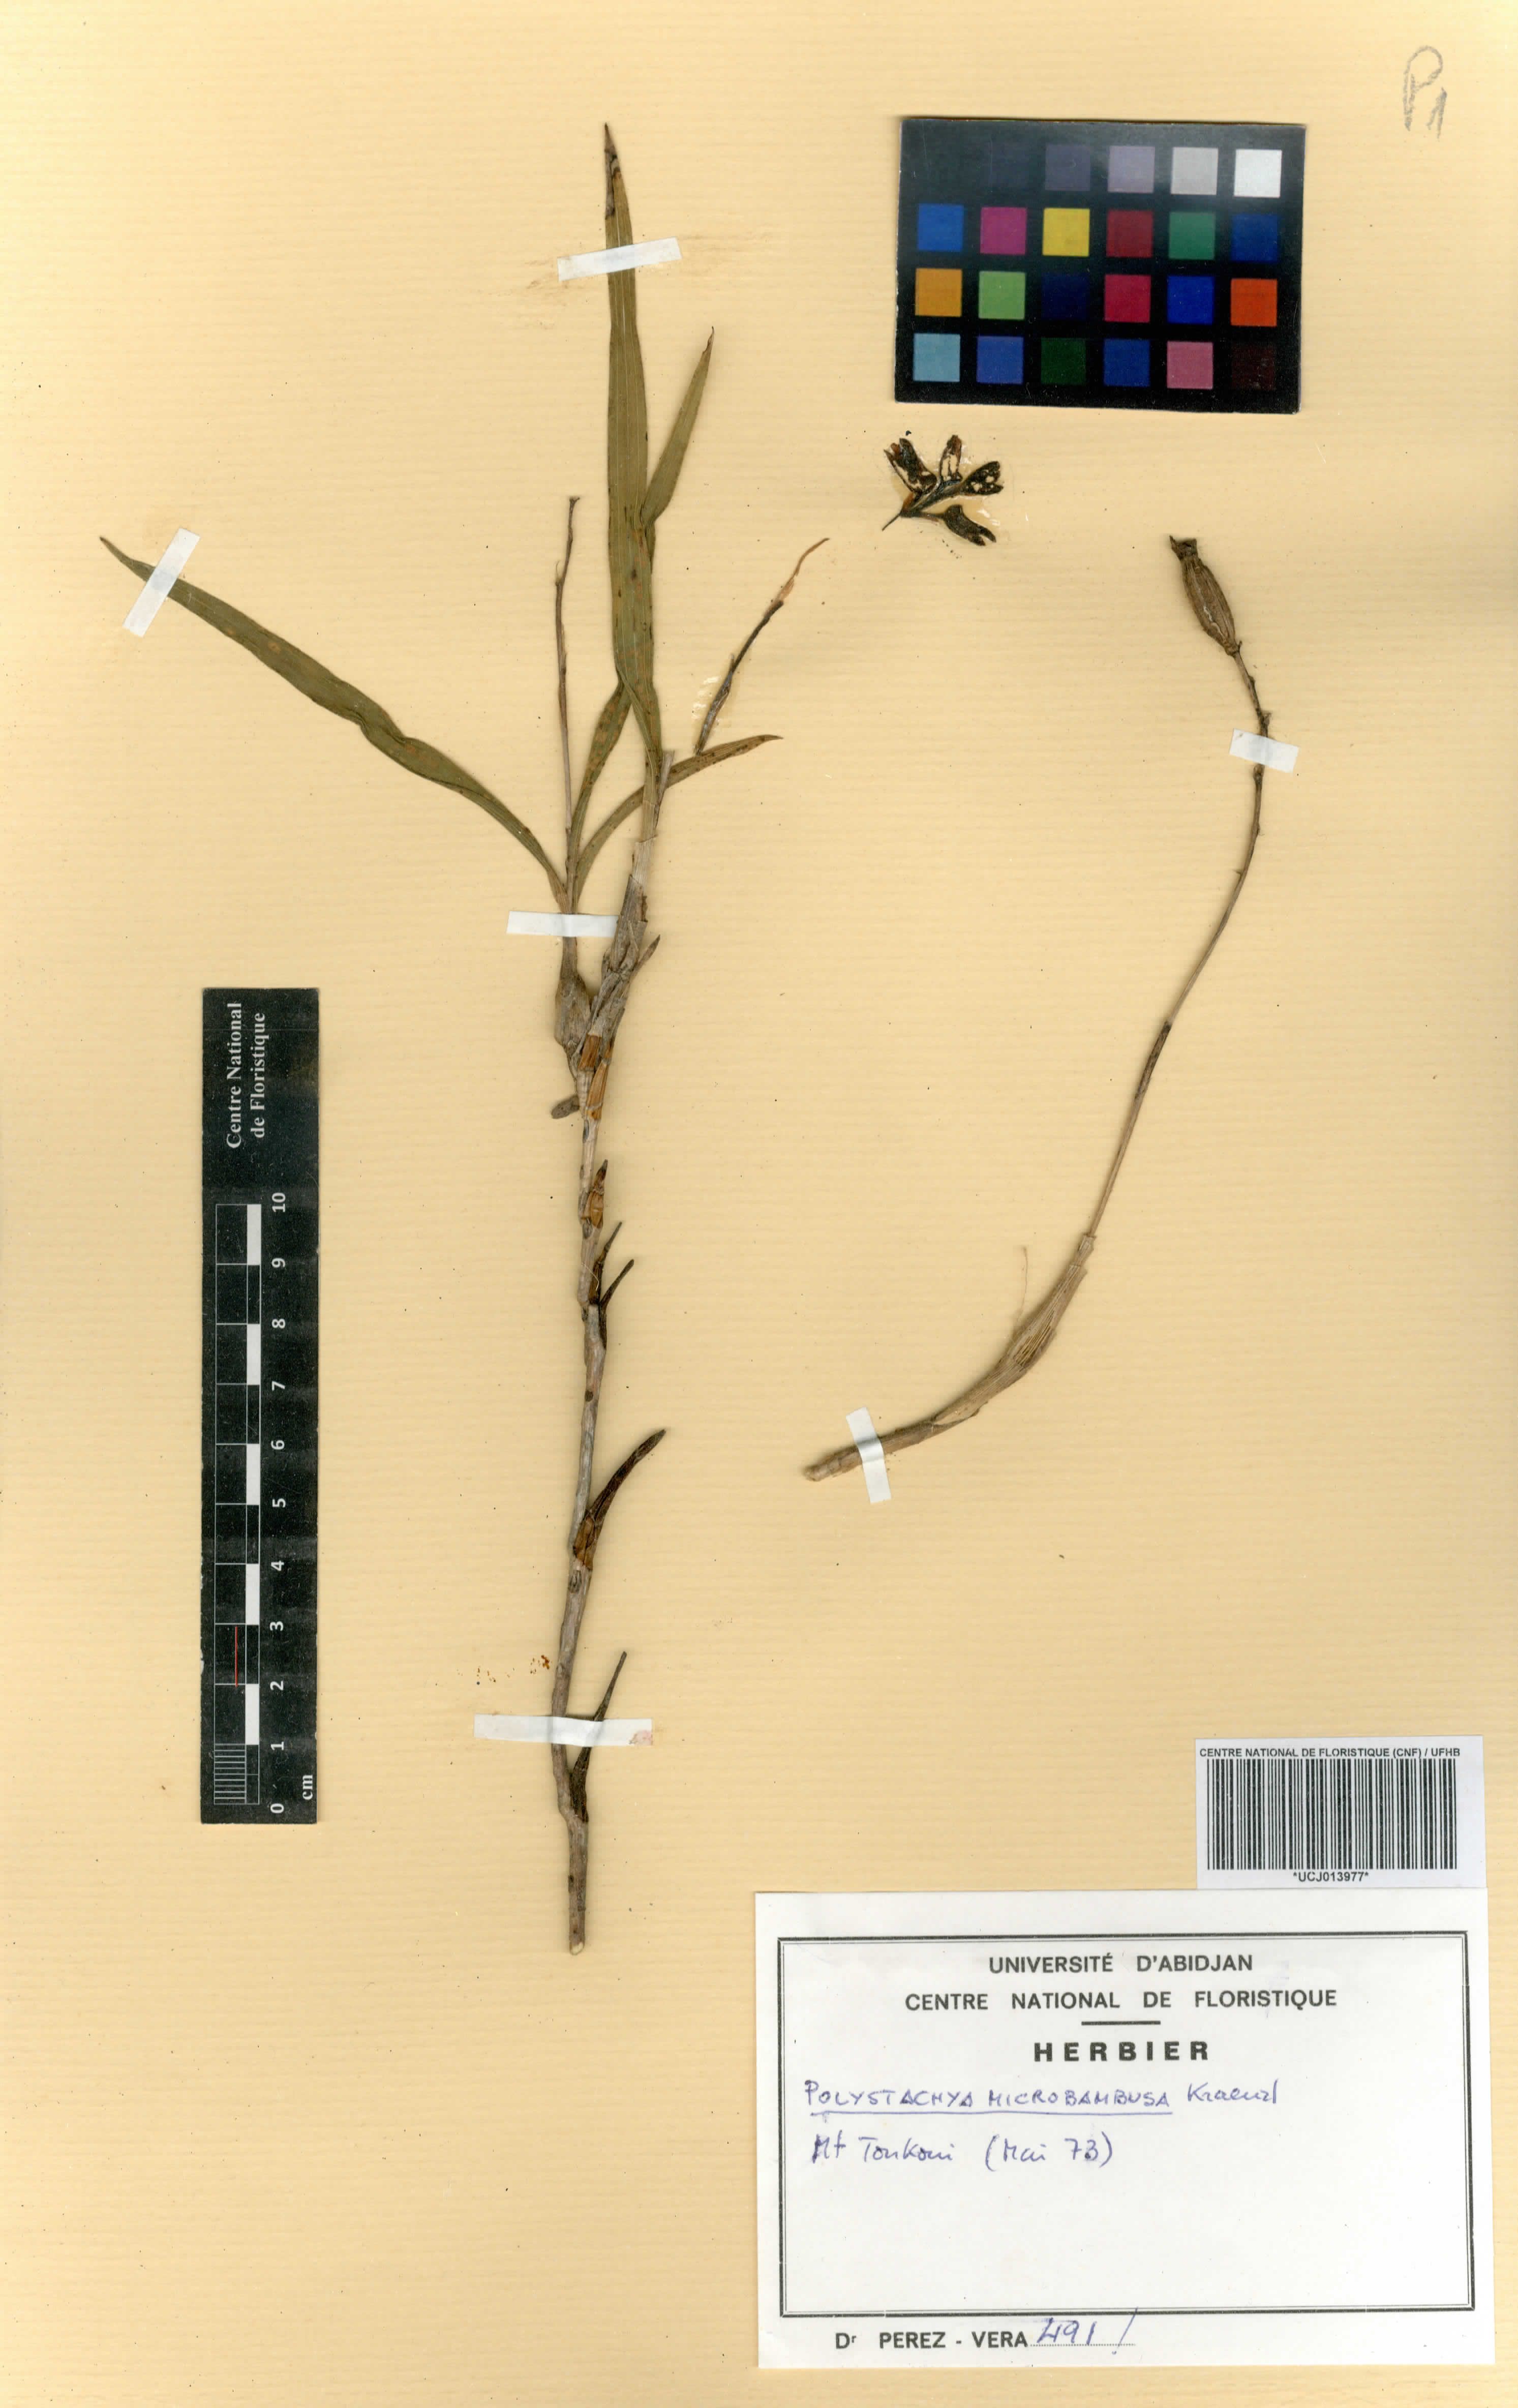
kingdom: Plantae
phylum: Tracheophyta
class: Liliopsida
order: Asparagales
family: Orchidaceae
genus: Polystachya
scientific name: Polystachya microbambusa
